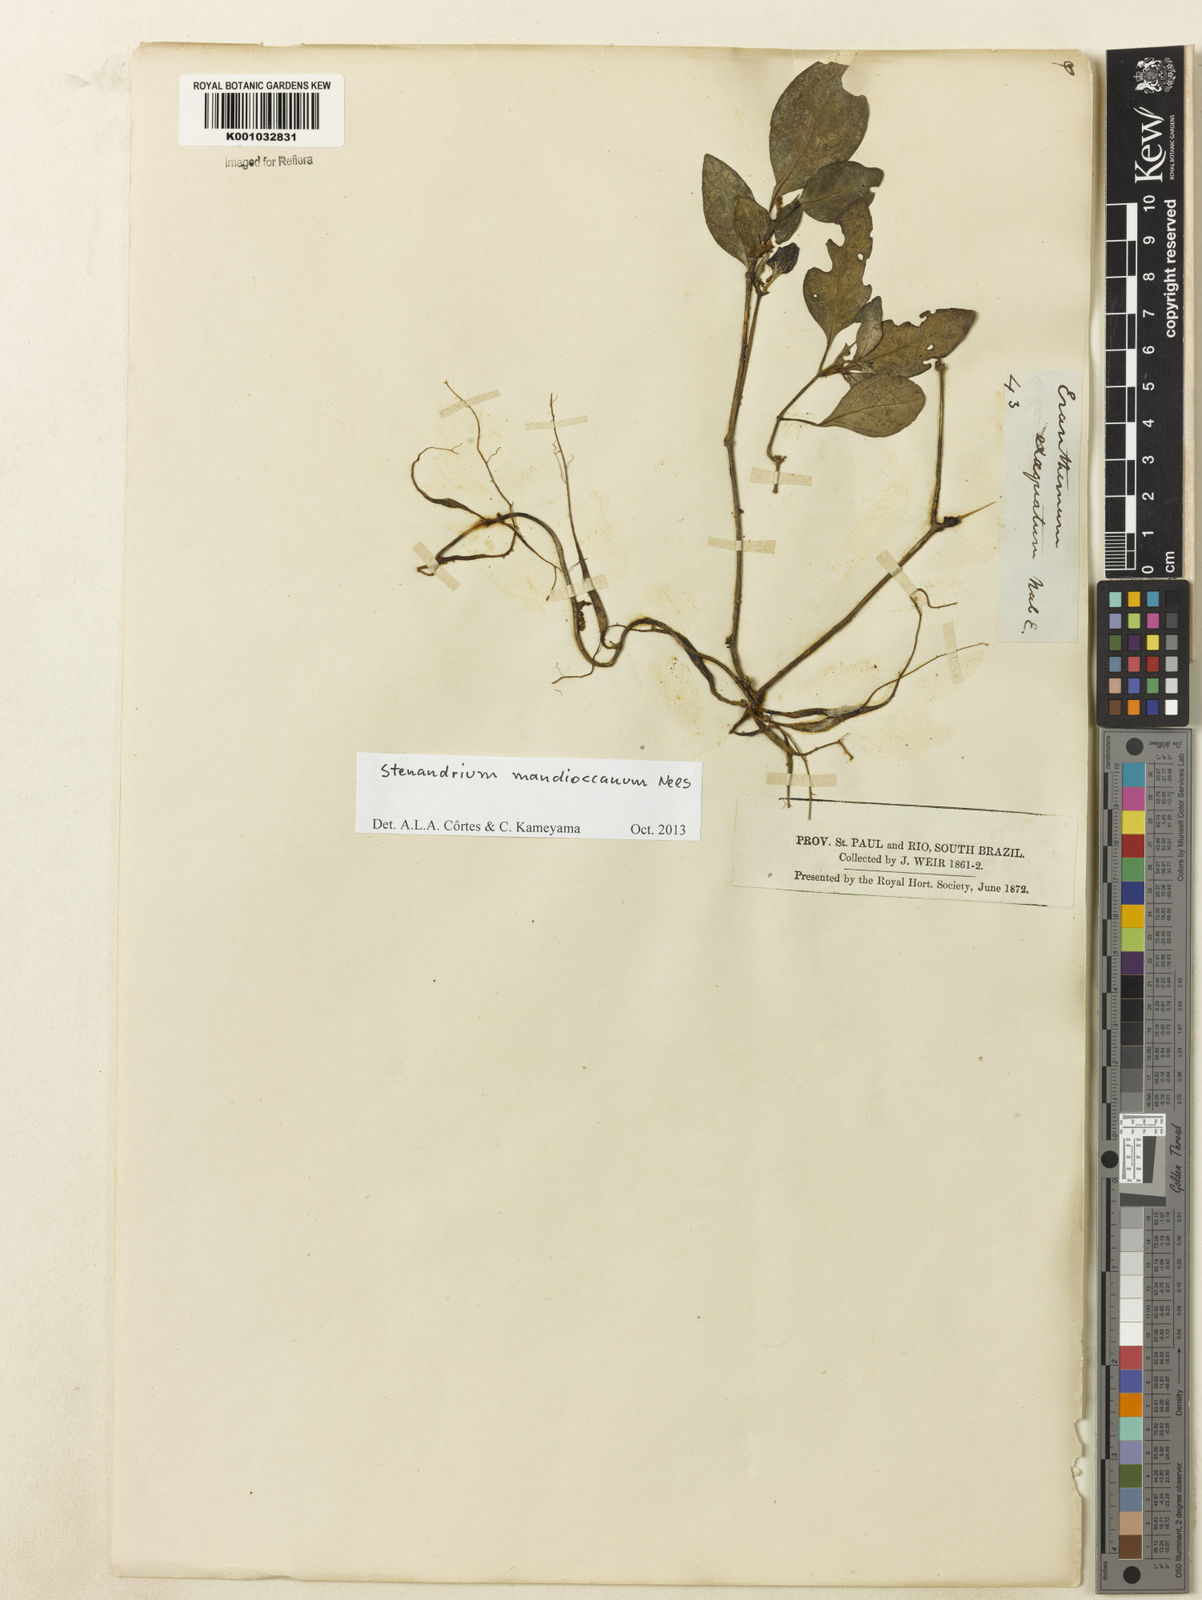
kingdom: Plantae
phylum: Tracheophyta
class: Magnoliopsida
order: Lamiales
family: Acanthaceae
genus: Stenandrium
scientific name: Stenandrium mandioccanum
